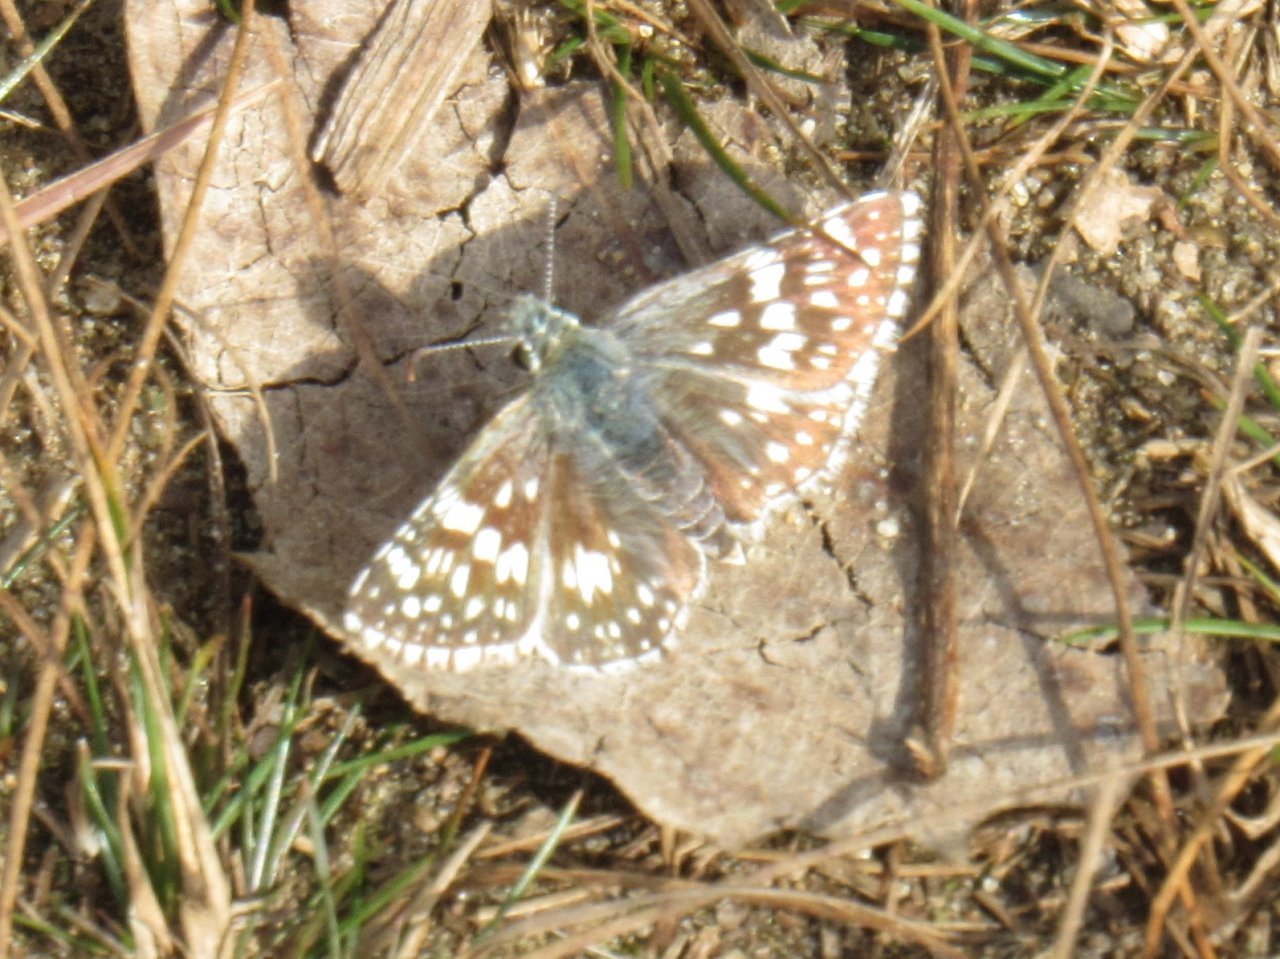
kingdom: Animalia
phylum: Arthropoda
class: Insecta
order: Lepidoptera
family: Hesperiidae
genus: Pyrgus
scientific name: Pyrgus communis
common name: Common Checkered-Skipper
